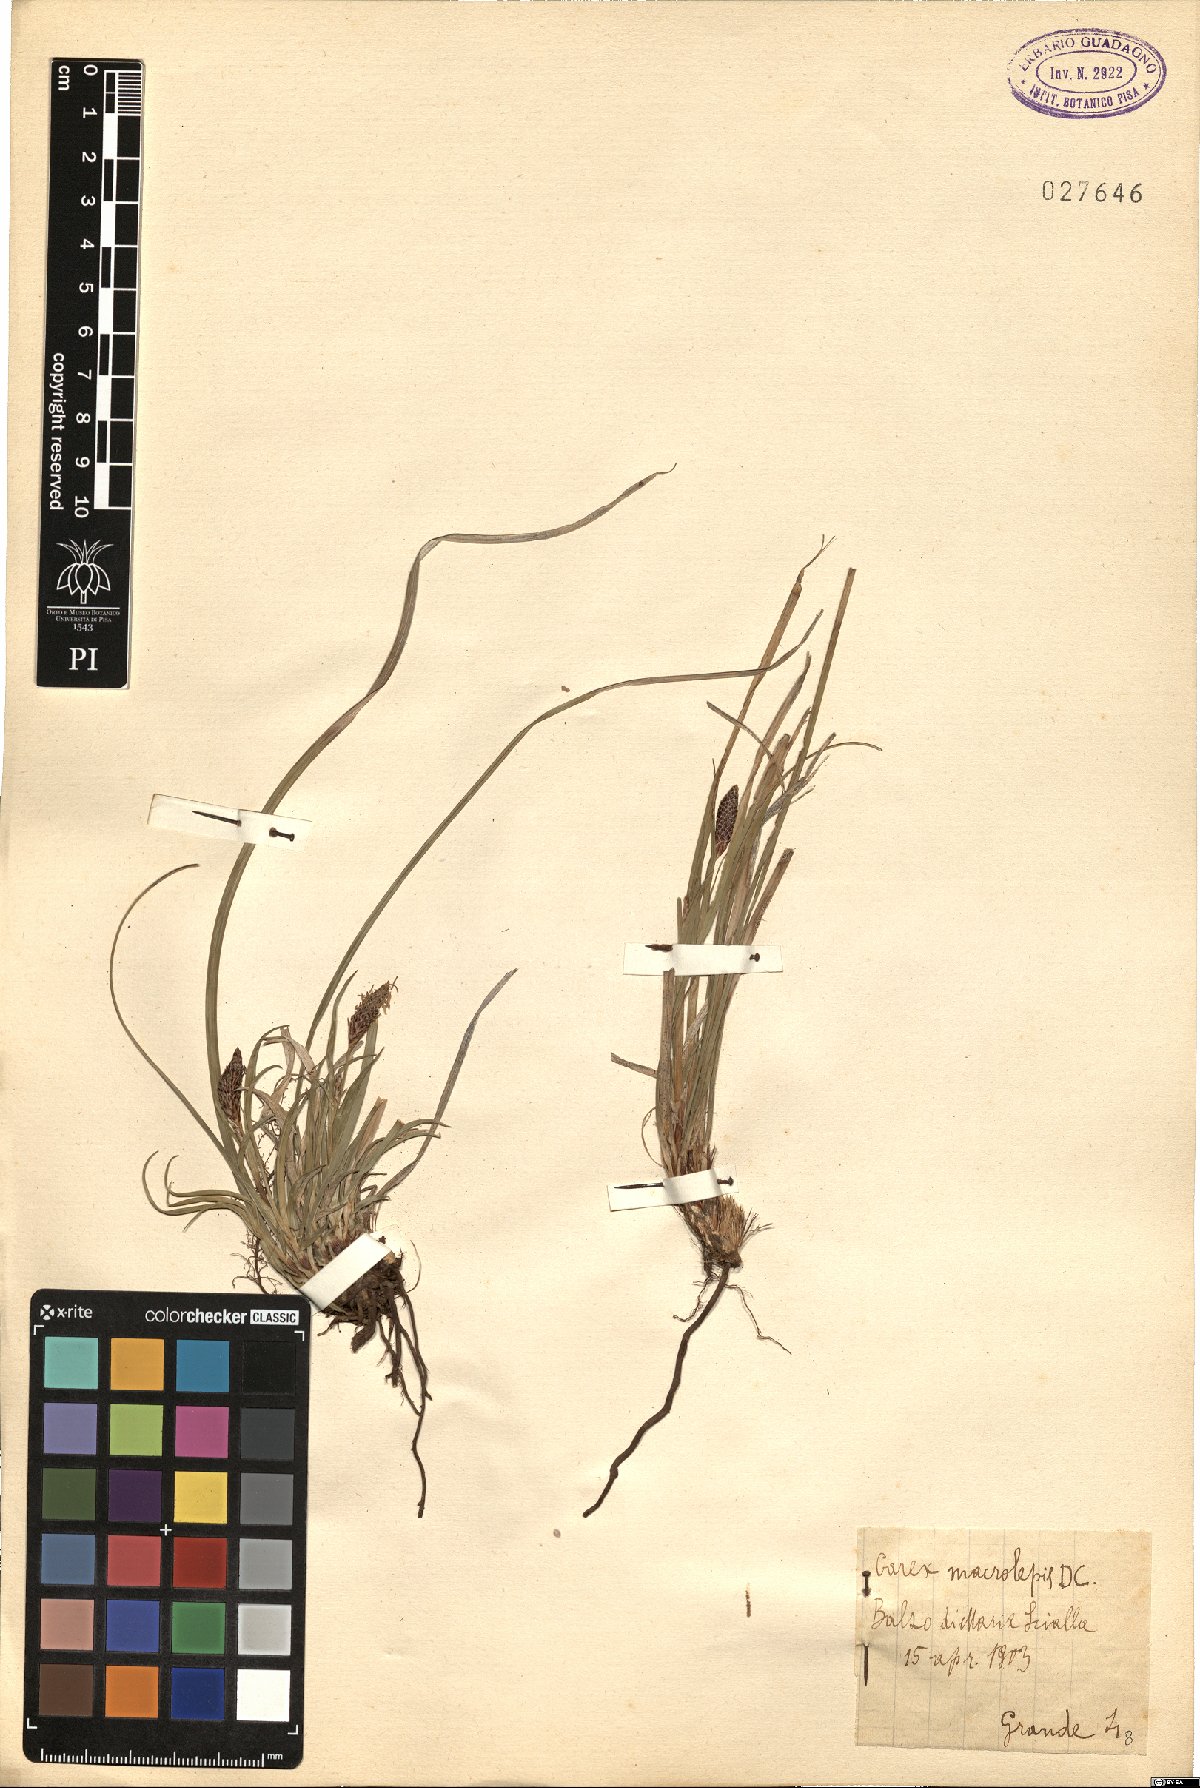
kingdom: Plantae
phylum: Tracheophyta
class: Liliopsida
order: Poales
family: Cyperaceae
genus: Carex
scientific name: Carex macrolepis
